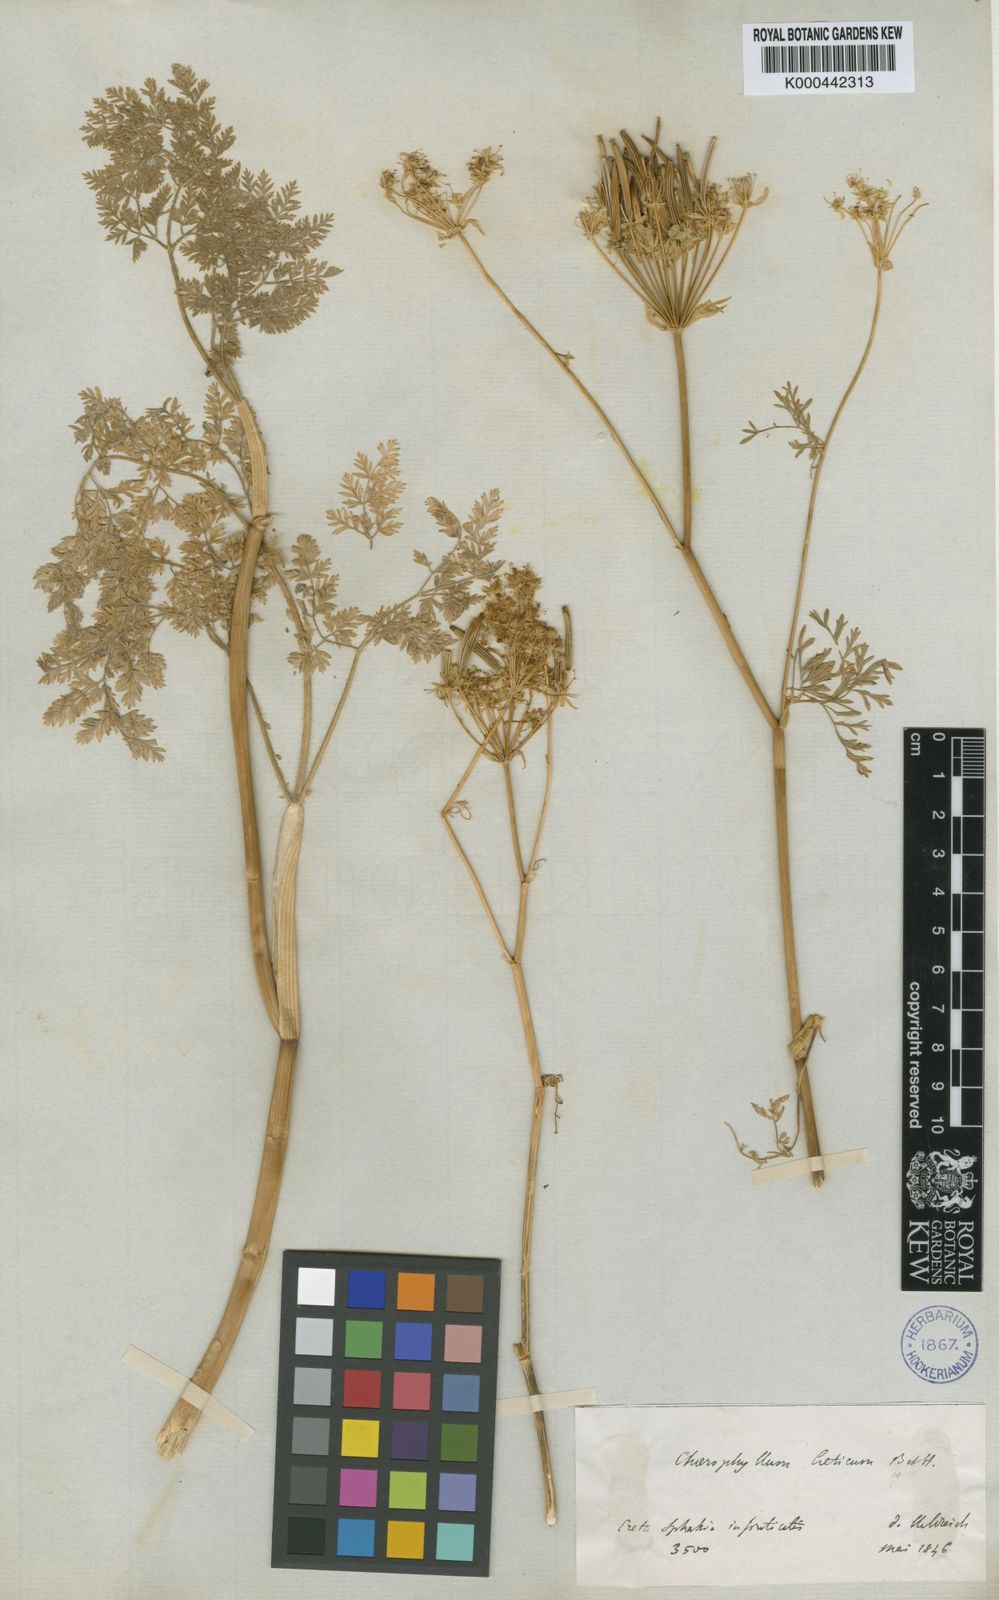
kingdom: Plantae
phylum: Tracheophyta
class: Magnoliopsida
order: Apiales
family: Apiaceae
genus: Chaerophyllum
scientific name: Chaerophyllum creticum
